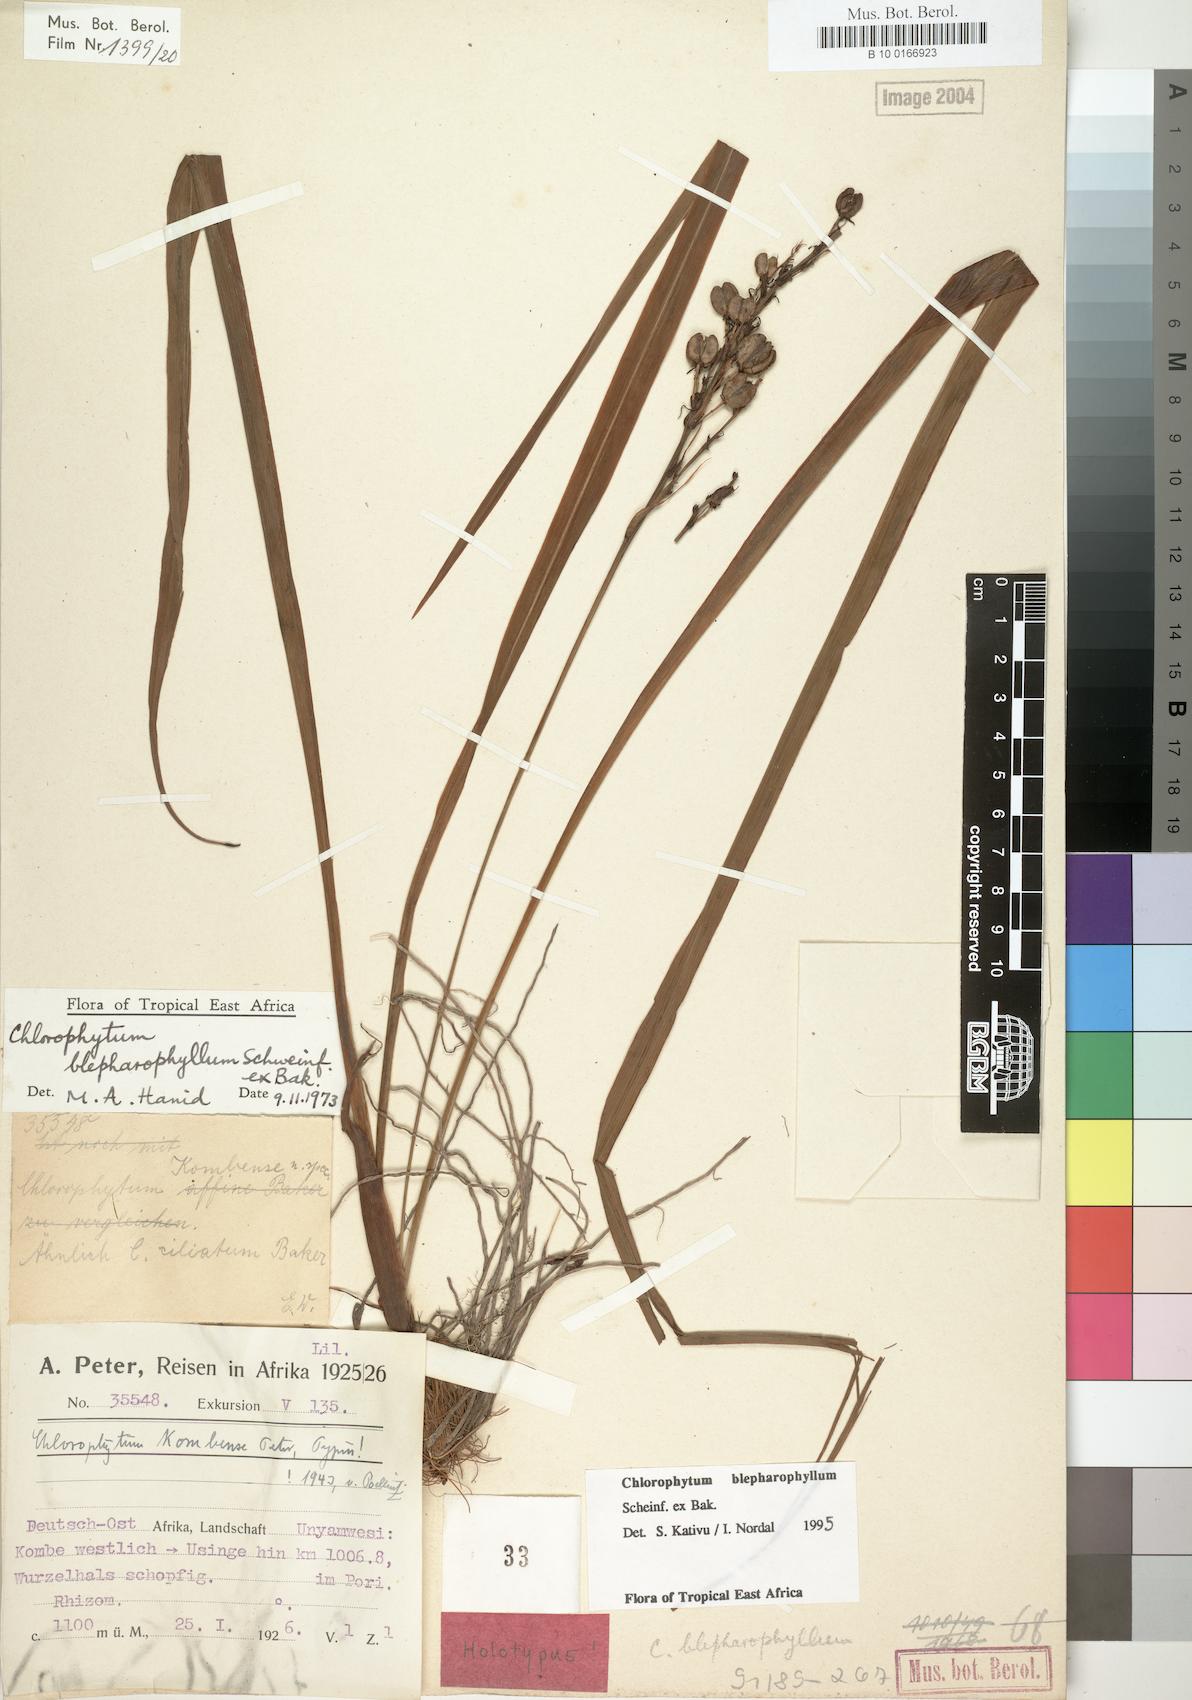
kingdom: Plantae
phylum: Tracheophyta
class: Liliopsida
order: Asparagales
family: Asparagaceae
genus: Chlorophytum
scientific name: Chlorophytum blepharophyllum
